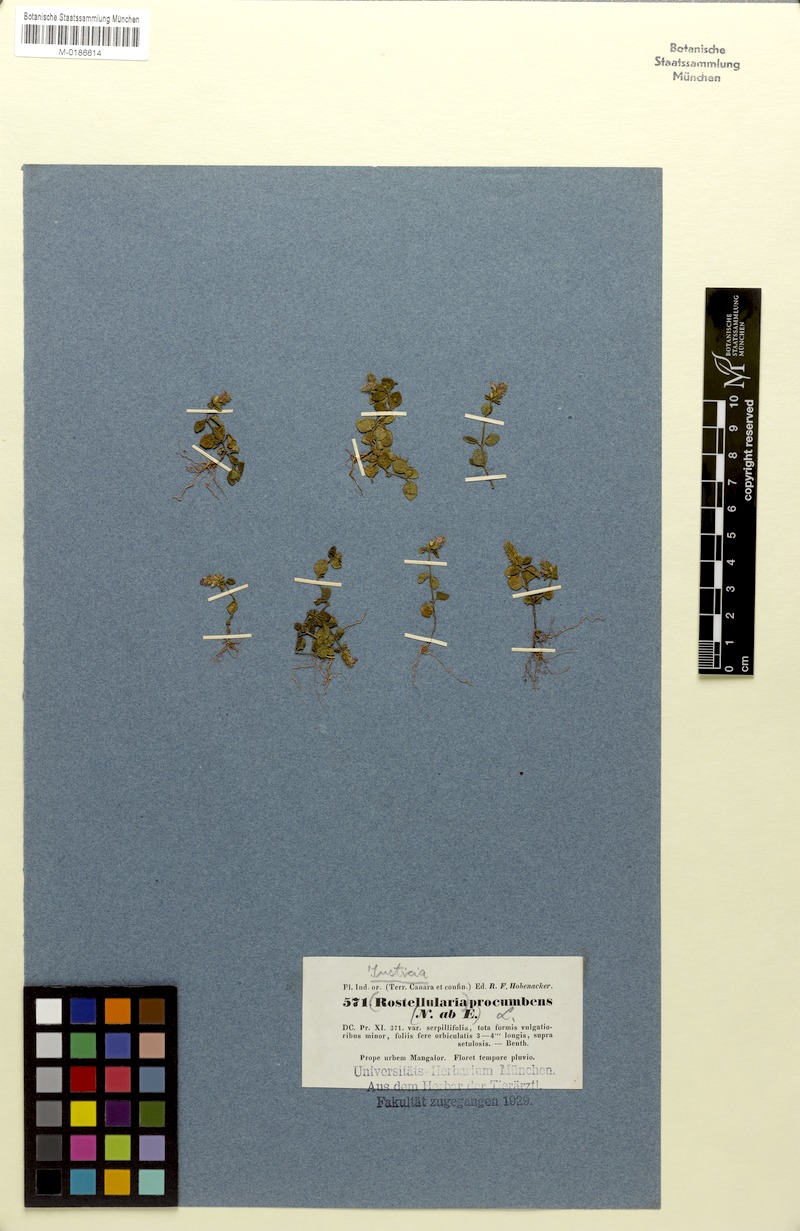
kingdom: Plantae
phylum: Tracheophyta
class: Magnoliopsida
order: Lamiales
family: Acanthaceae
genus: Rostellularia
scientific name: Rostellularia procumbens
